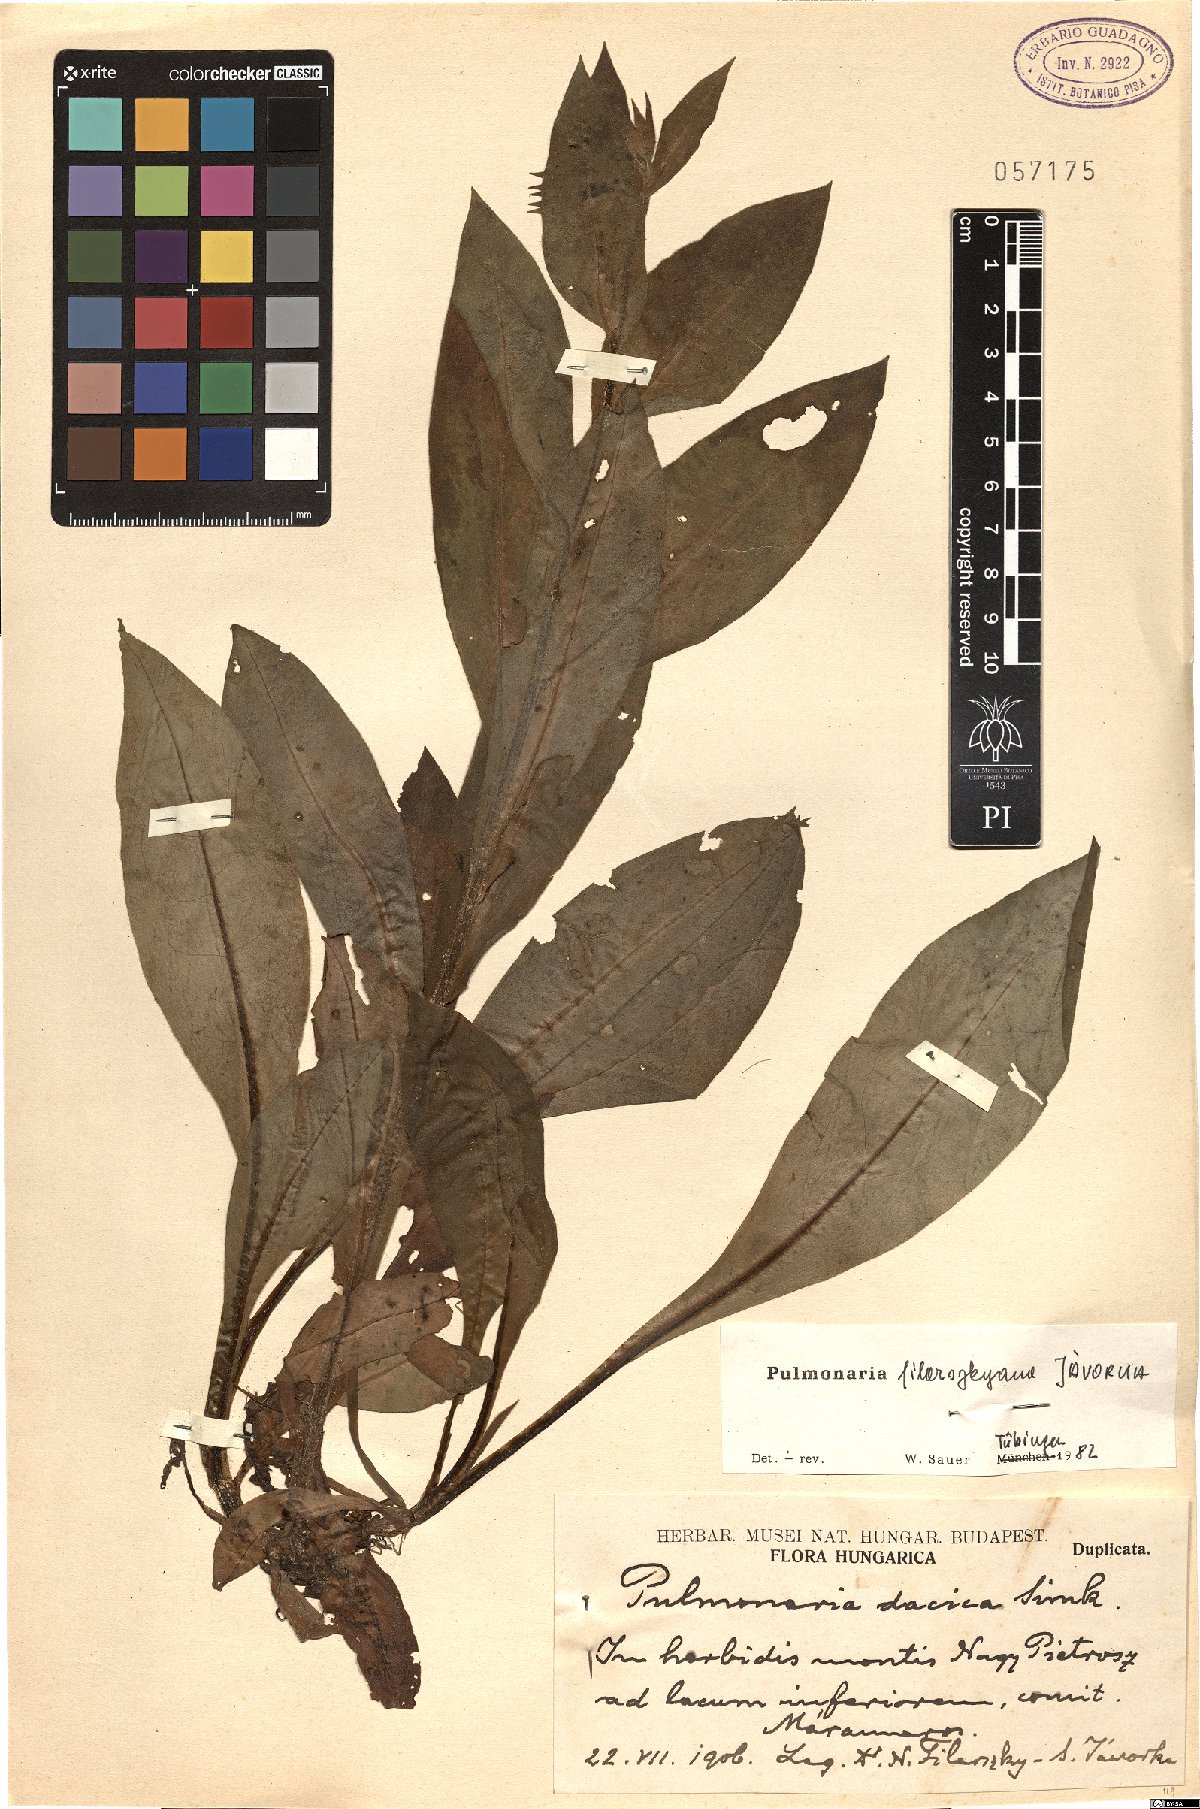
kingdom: Plantae
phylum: Tracheophyta
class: Magnoliopsida
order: Boraginales
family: Boraginaceae
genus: Pulmonaria
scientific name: Pulmonaria filarszkyana
